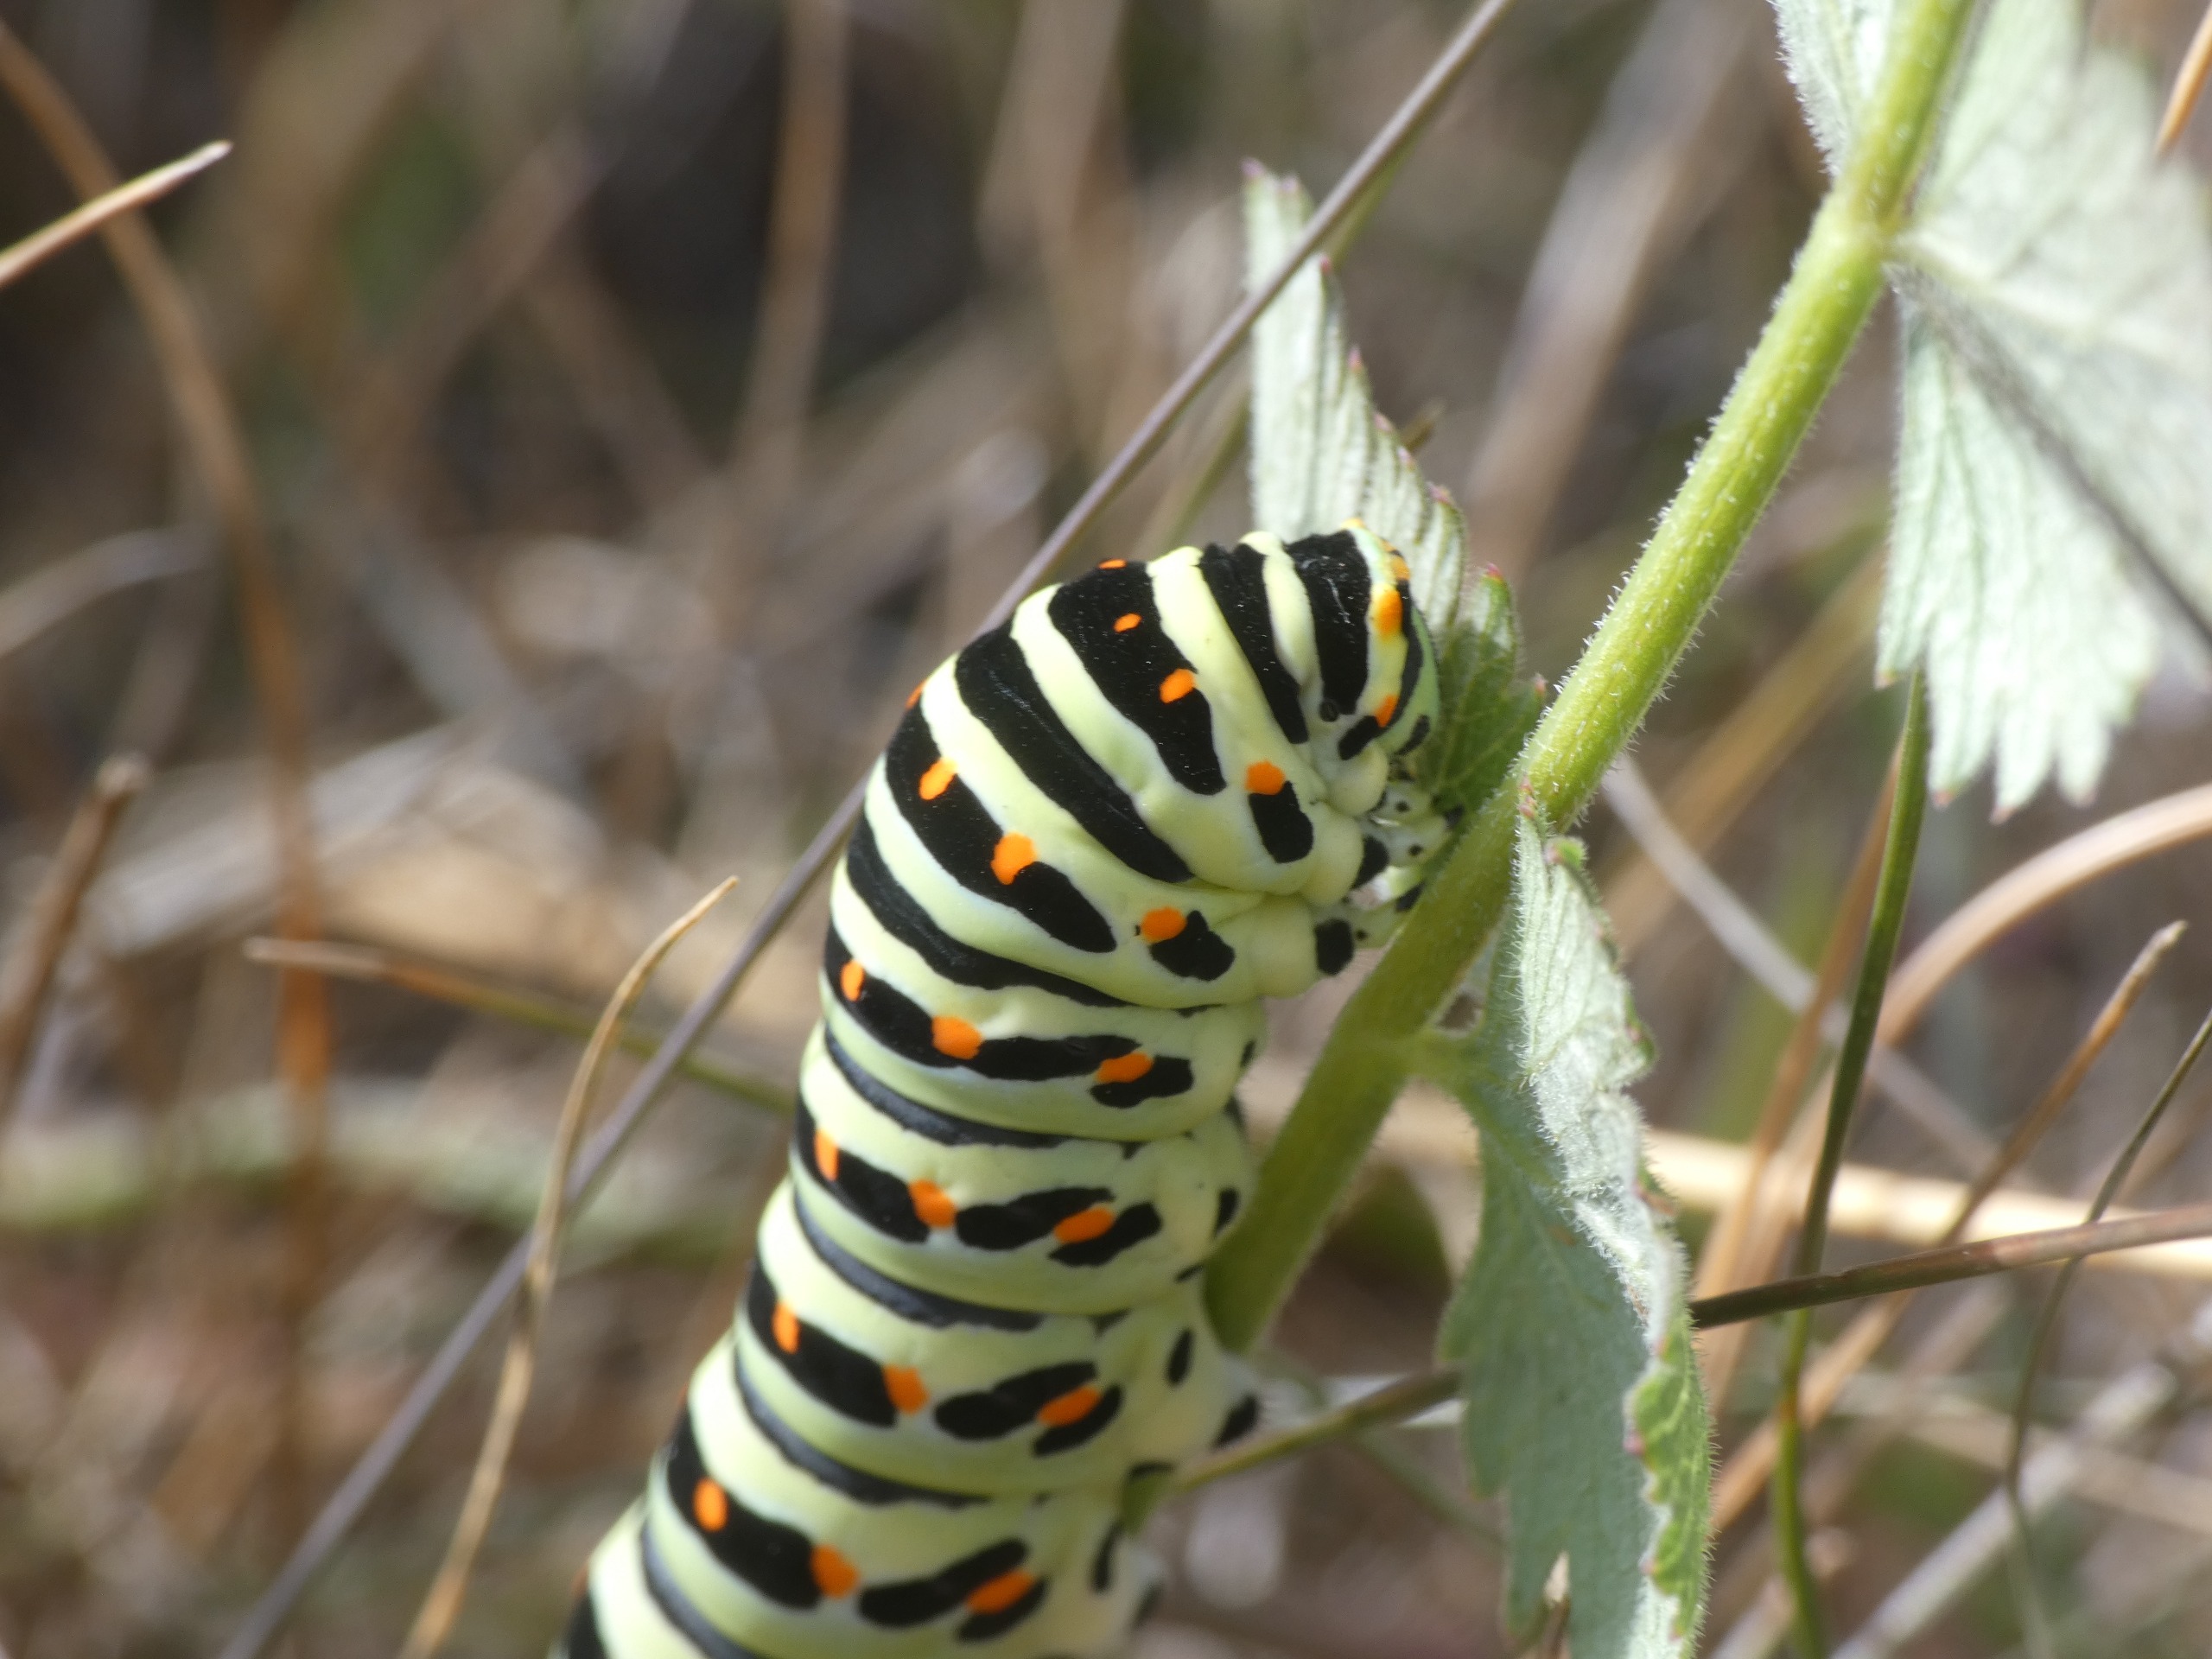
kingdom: Animalia
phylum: Arthropoda
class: Insecta
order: Lepidoptera
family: Papilionidae
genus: Papilio
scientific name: Papilio machaon
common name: Svalehale
